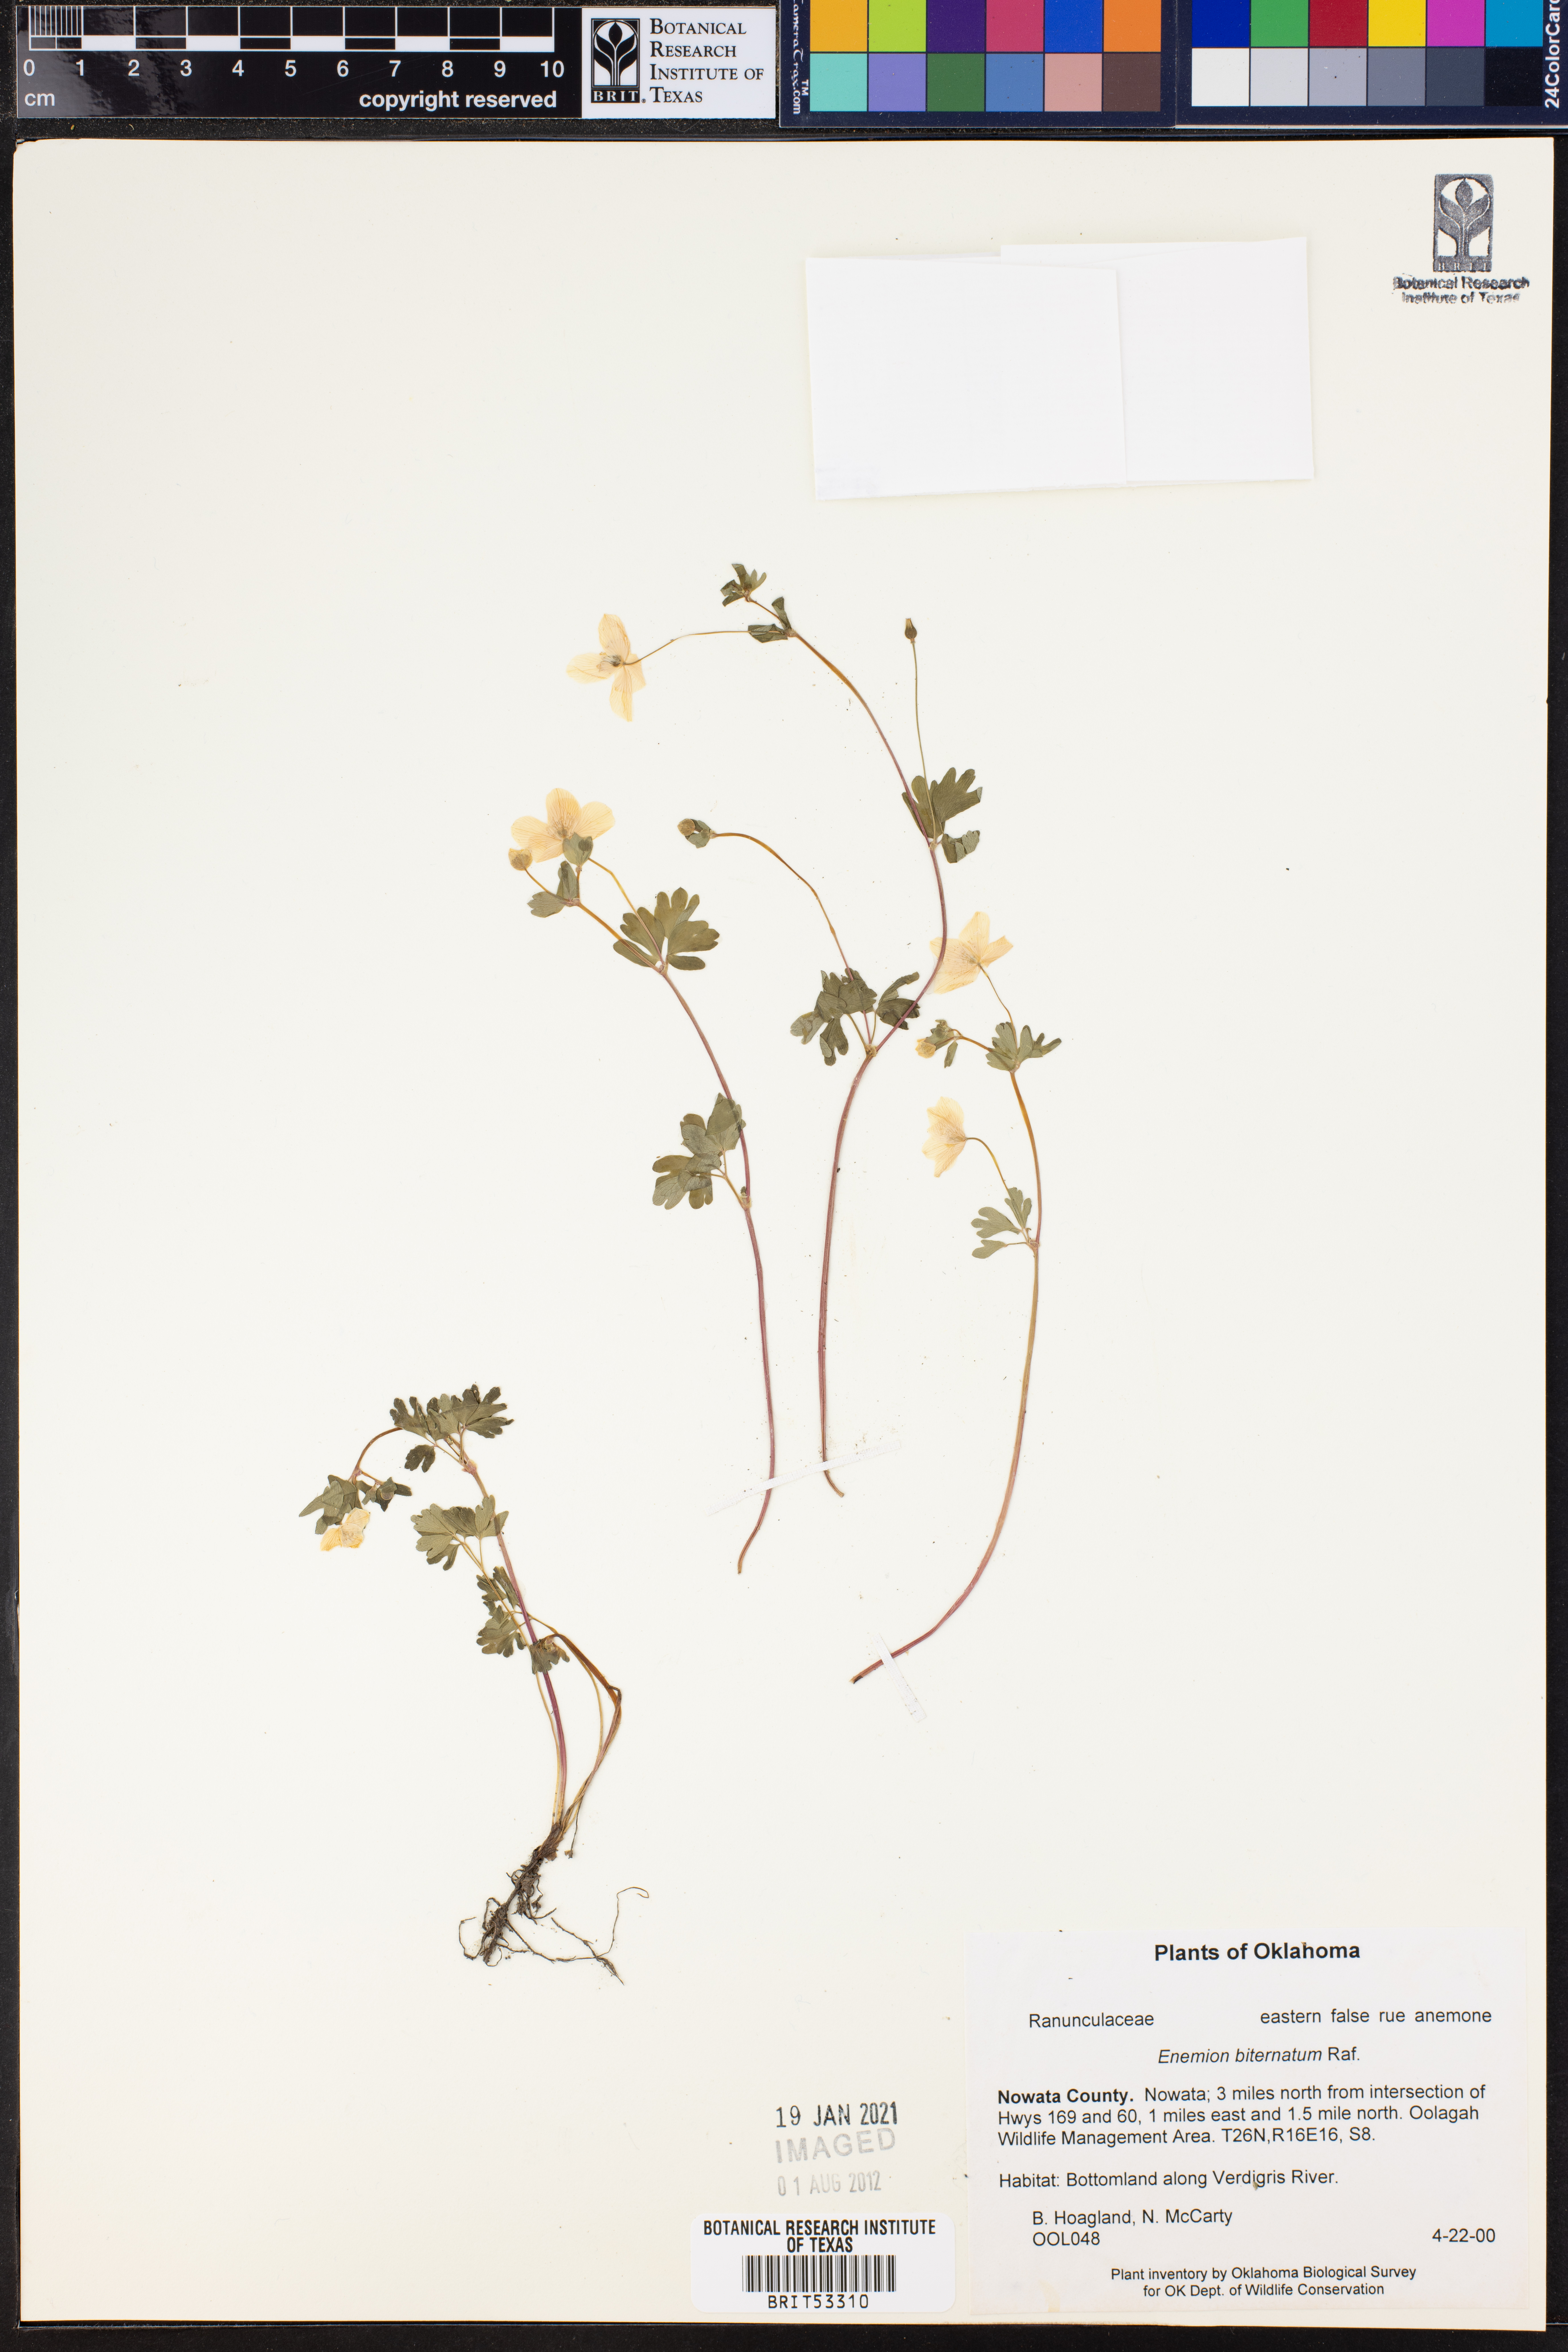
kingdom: Plantae
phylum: Tracheophyta
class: Magnoliopsida
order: Ranunculales
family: Ranunculaceae
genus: Enemion
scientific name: Enemion biternatum
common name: Eastern false rue-anemone
